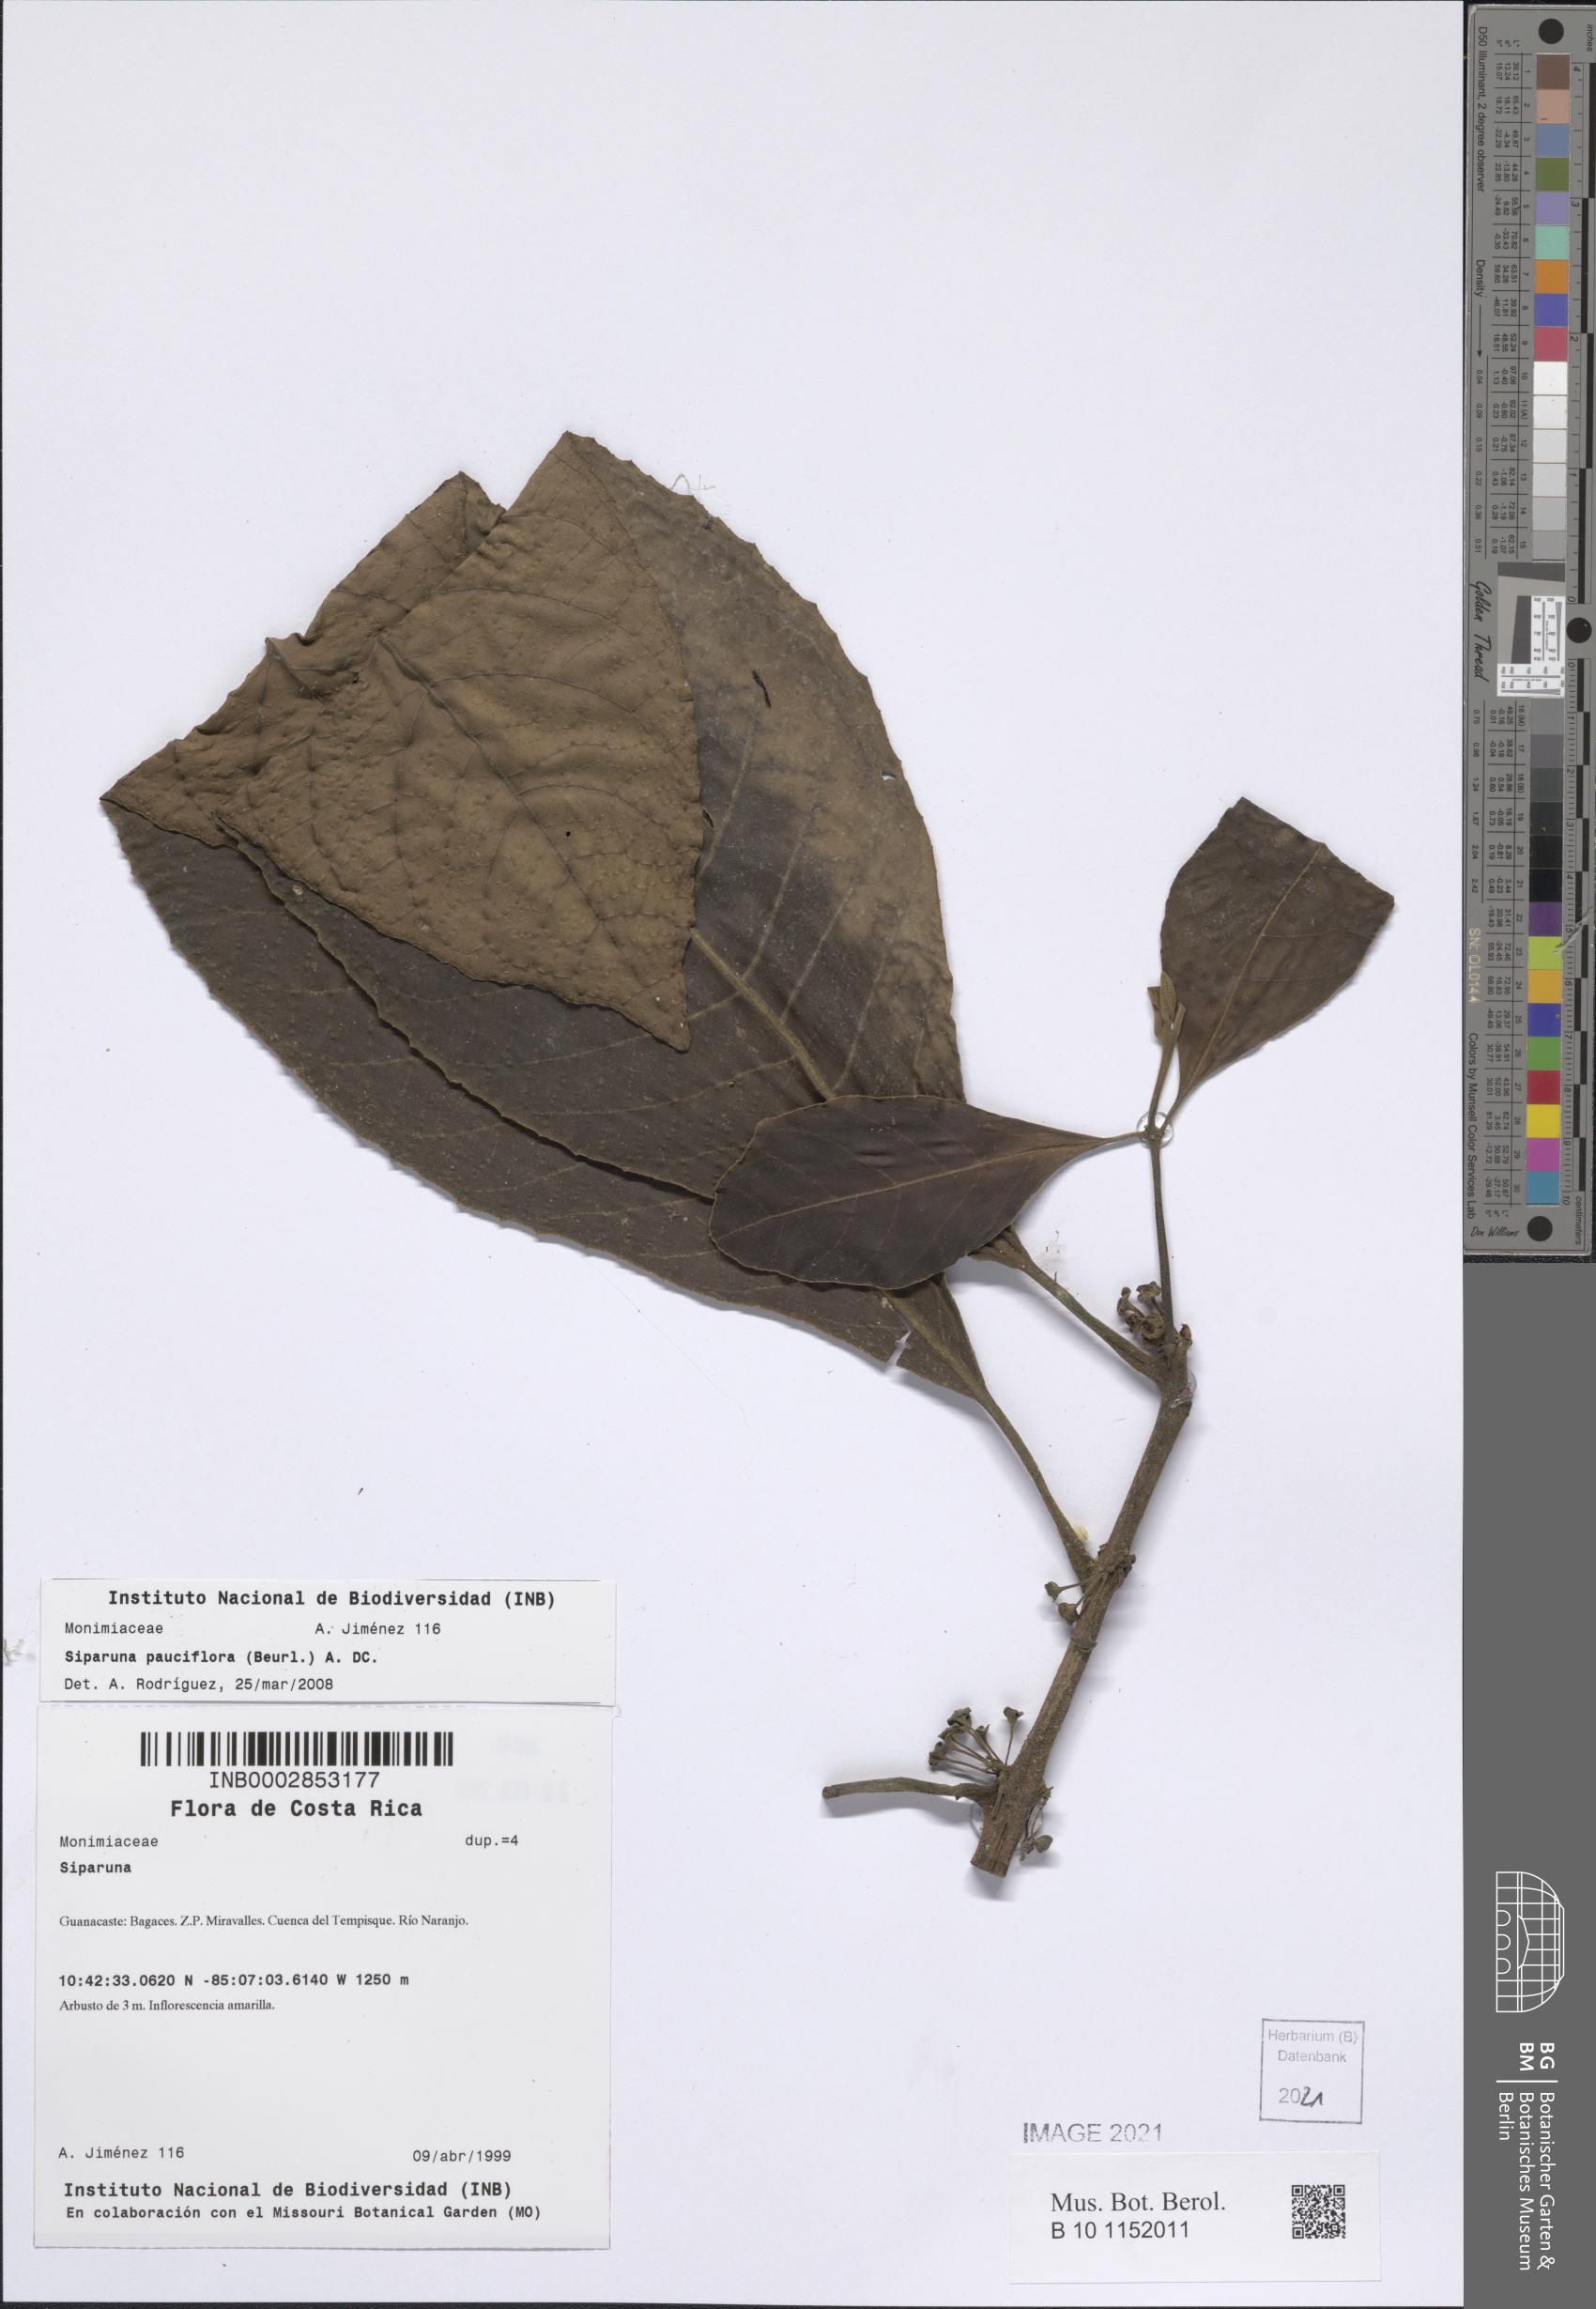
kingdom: Plantae
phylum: Tracheophyta
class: Magnoliopsida
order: Laurales
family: Siparunaceae
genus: Siparuna
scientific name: Siparuna pauciflora
